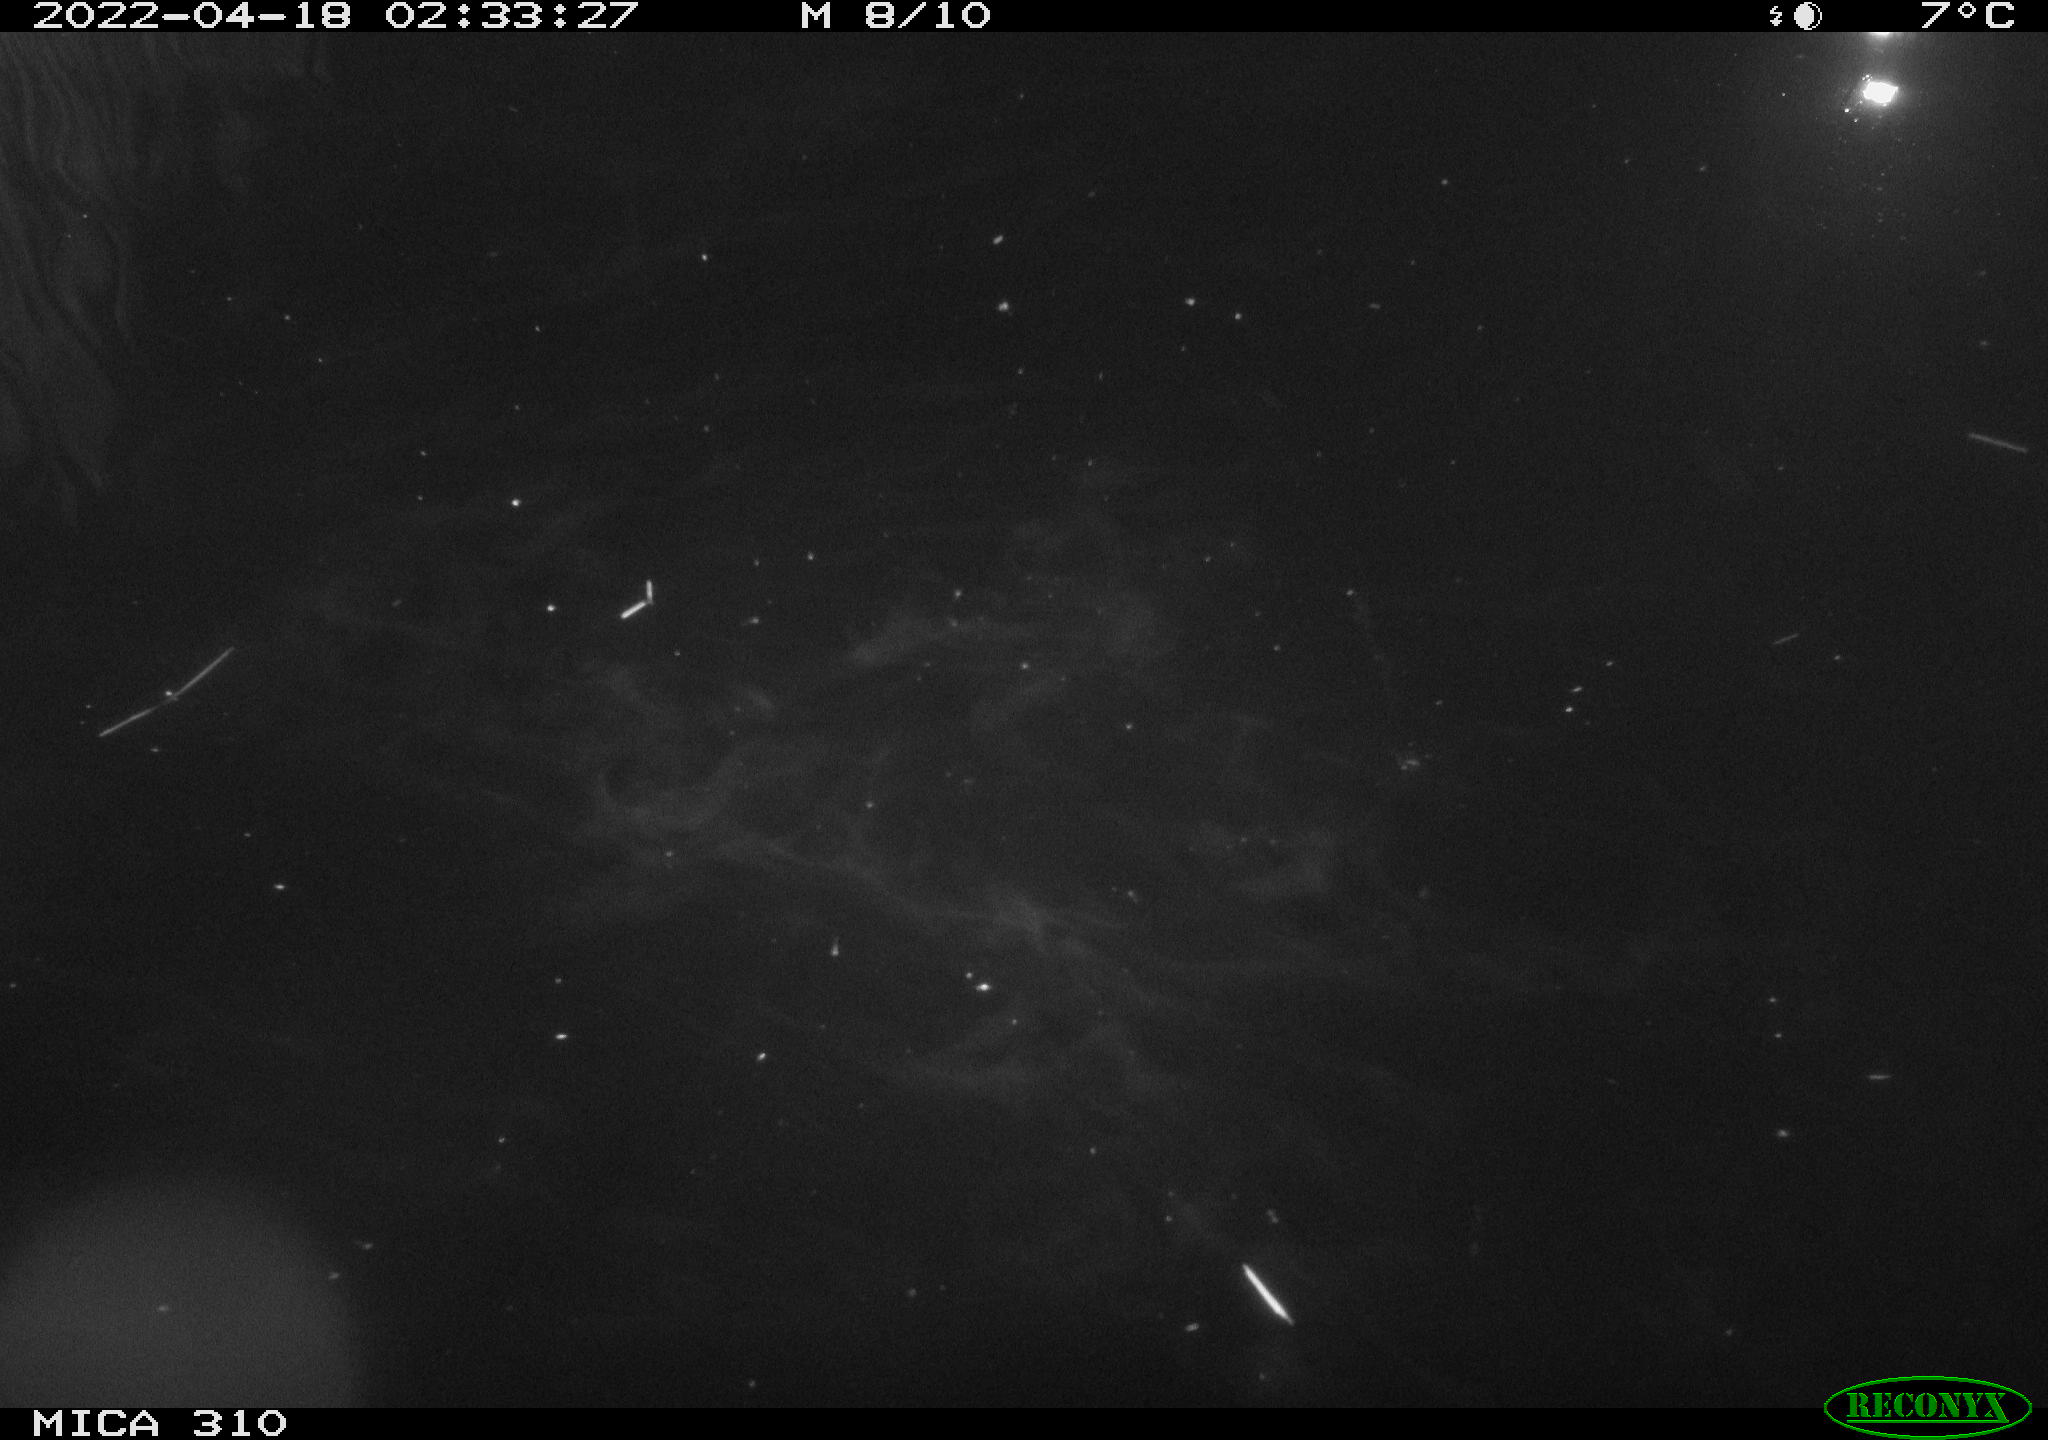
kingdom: Animalia
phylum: Chordata
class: Aves
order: Anseriformes
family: Anatidae
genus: Anas
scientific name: Anas platyrhynchos
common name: Mallard
